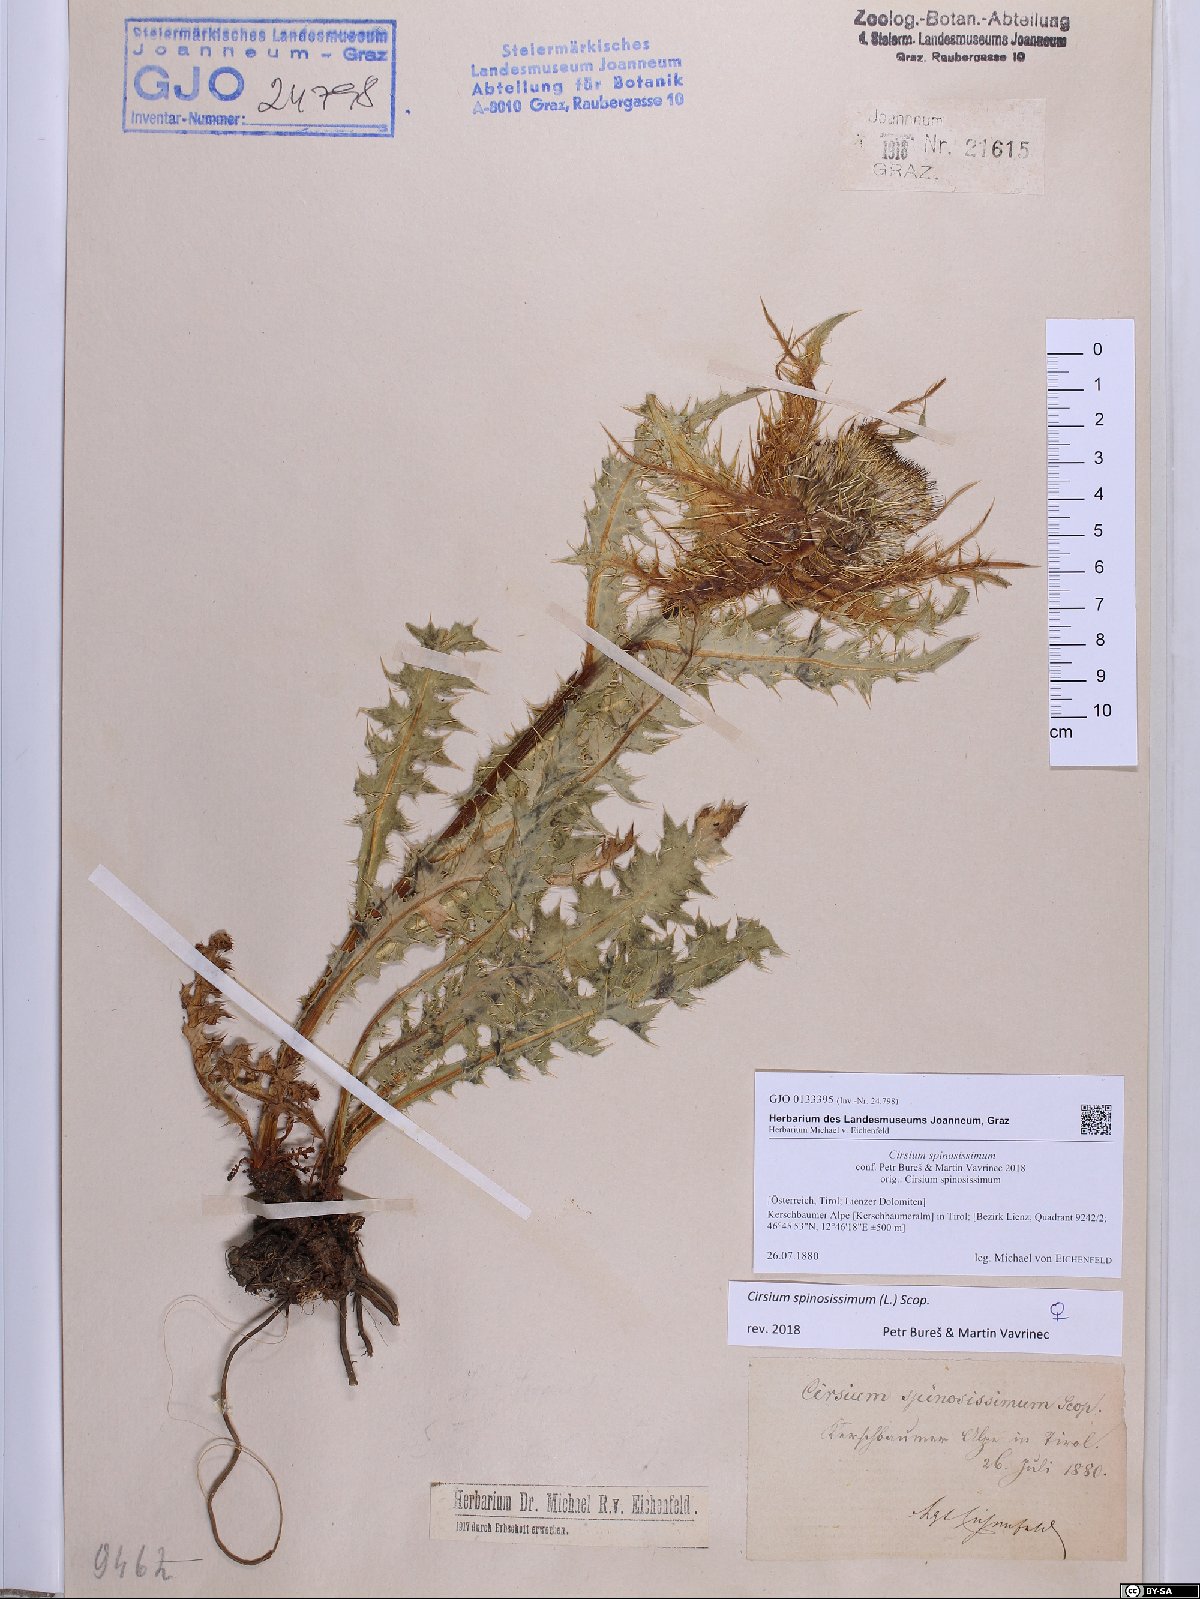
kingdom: Plantae
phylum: Tracheophyta
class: Magnoliopsida
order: Asterales
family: Asteraceae
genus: Cirsium
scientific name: Cirsium spinosissimum
